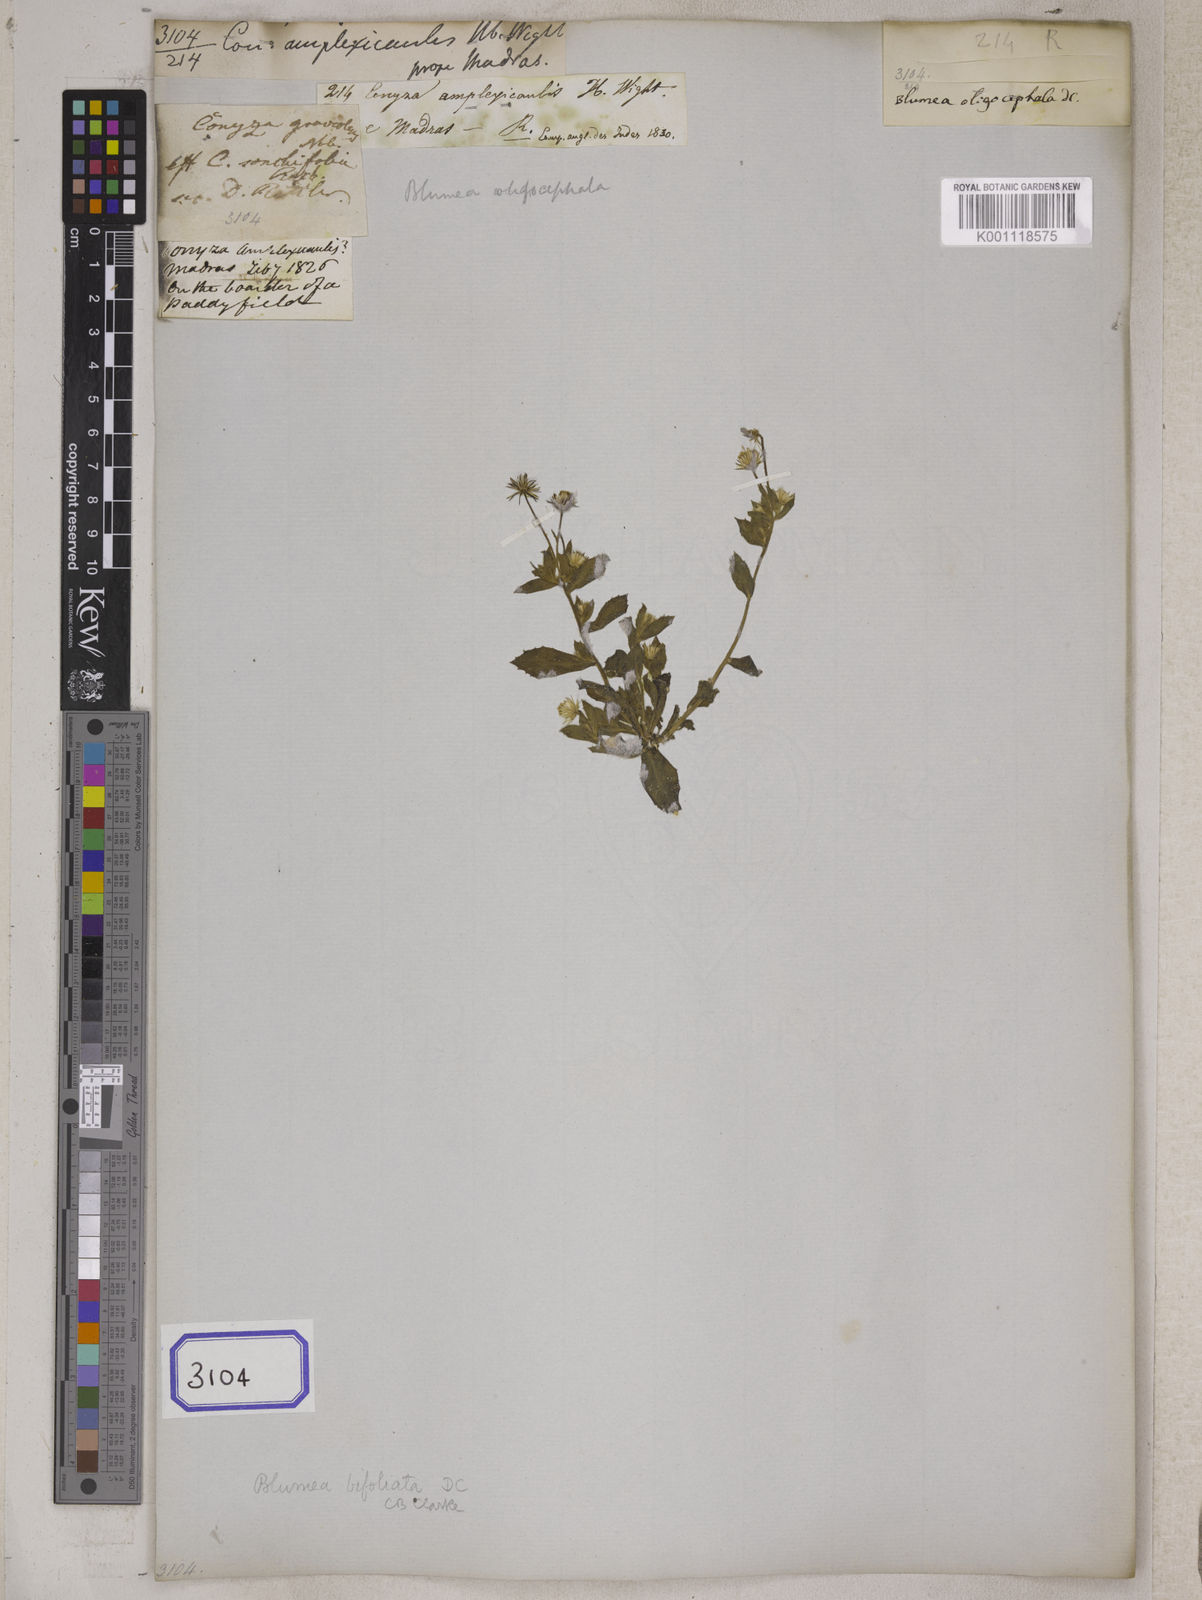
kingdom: Plantae
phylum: Tracheophyta
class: Magnoliopsida
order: Asterales
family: Asteraceae
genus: Blumea
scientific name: Blumea tenella
